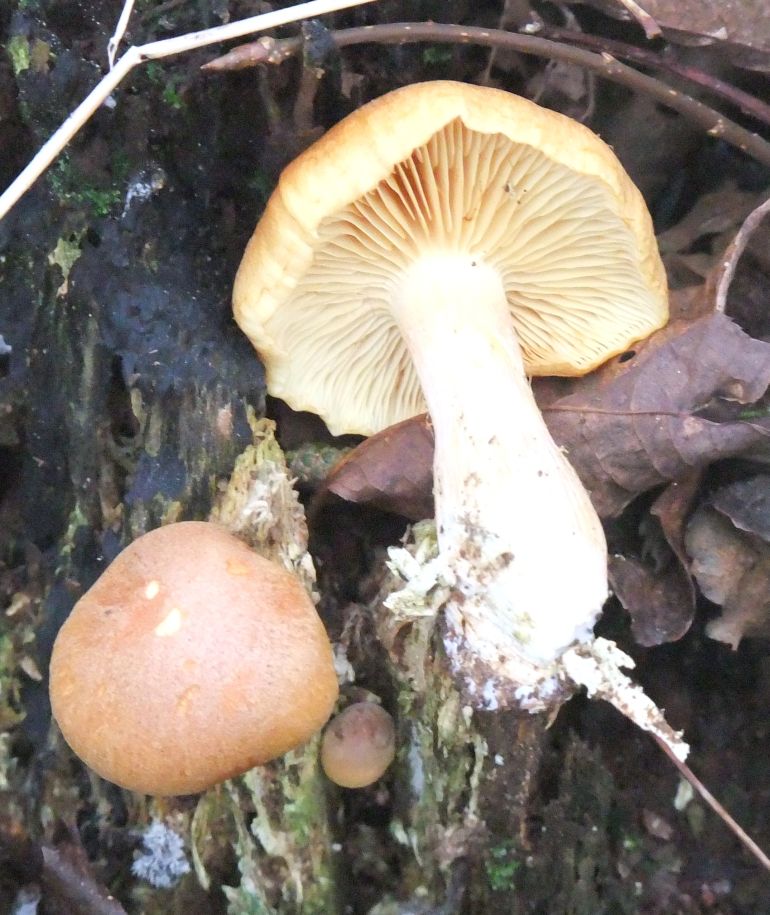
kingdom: Fungi
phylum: Basidiomycota
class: Agaricomycetes
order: Agaricales
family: Hymenogastraceae
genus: Gymnopilus
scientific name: Gymnopilus penetrans
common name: plettet flammehat
